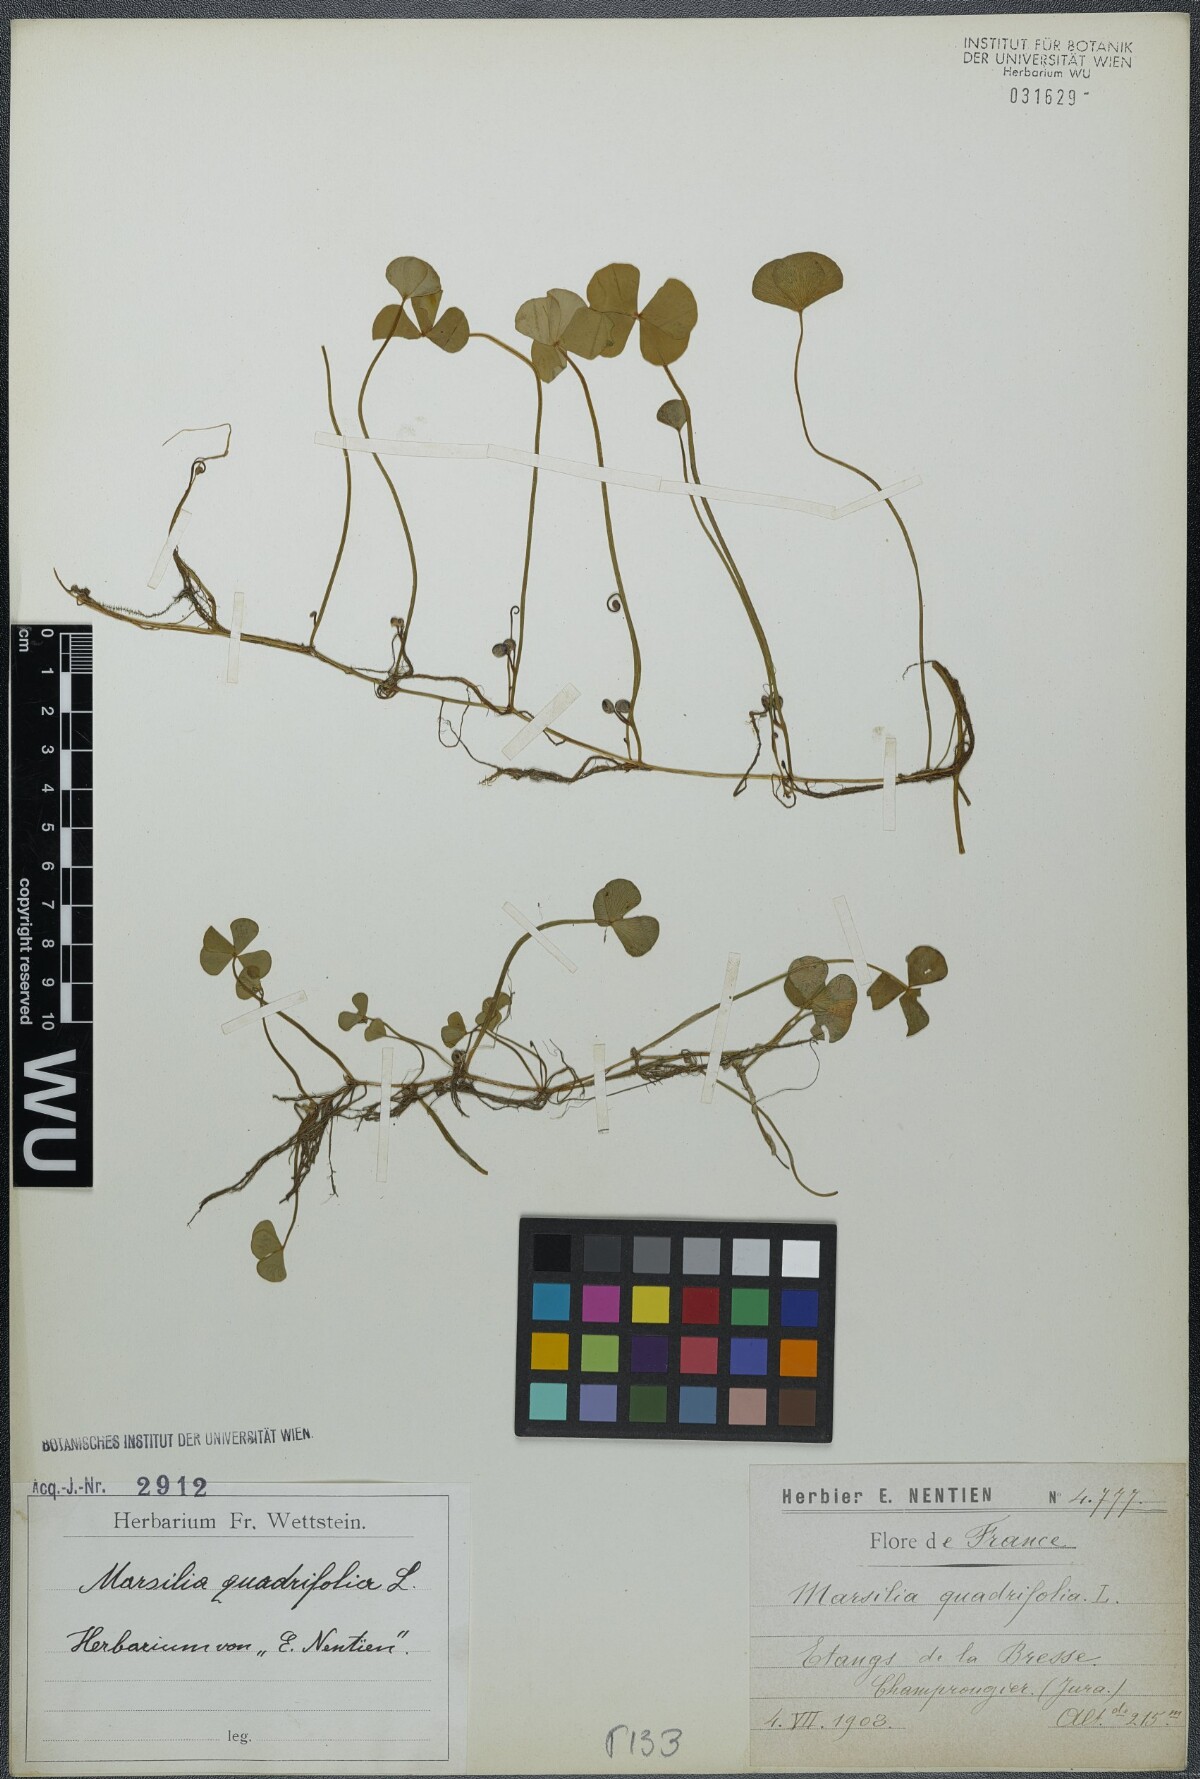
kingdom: Plantae
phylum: Tracheophyta
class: Polypodiopsida
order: Salviniales
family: Marsileaceae
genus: Marsilea
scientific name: Marsilea quadrifolia
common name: Water shamrock
